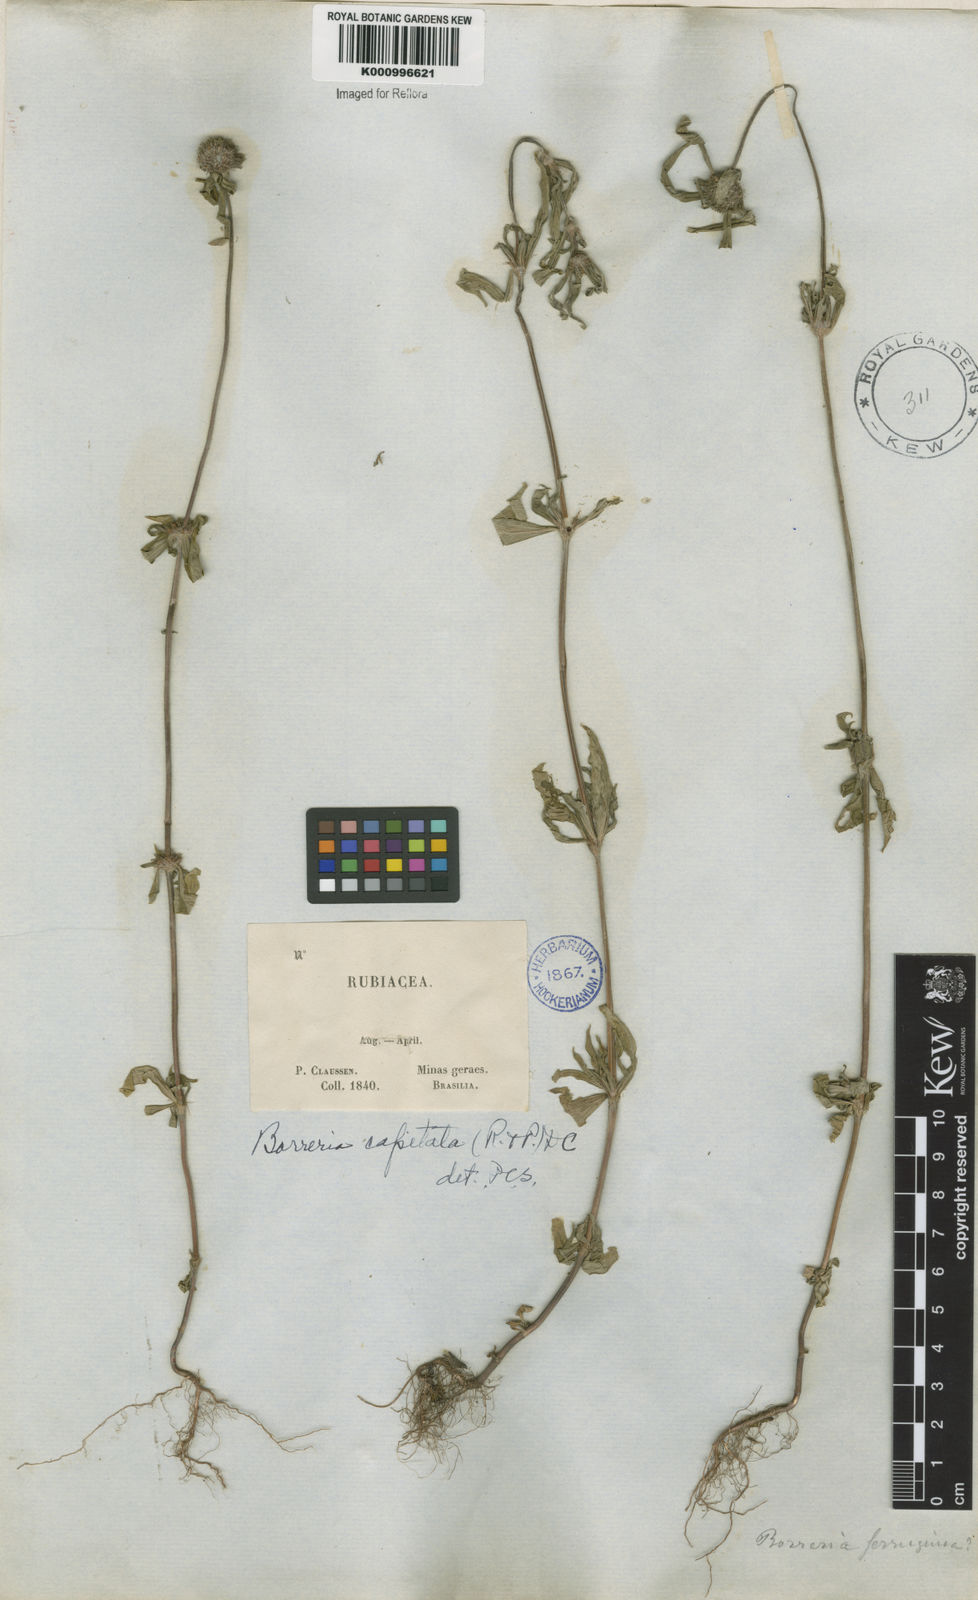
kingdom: Plantae
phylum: Tracheophyta
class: Magnoliopsida
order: Gentianales
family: Rubiaceae
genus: Spermacoce
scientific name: Spermacoce capitata
